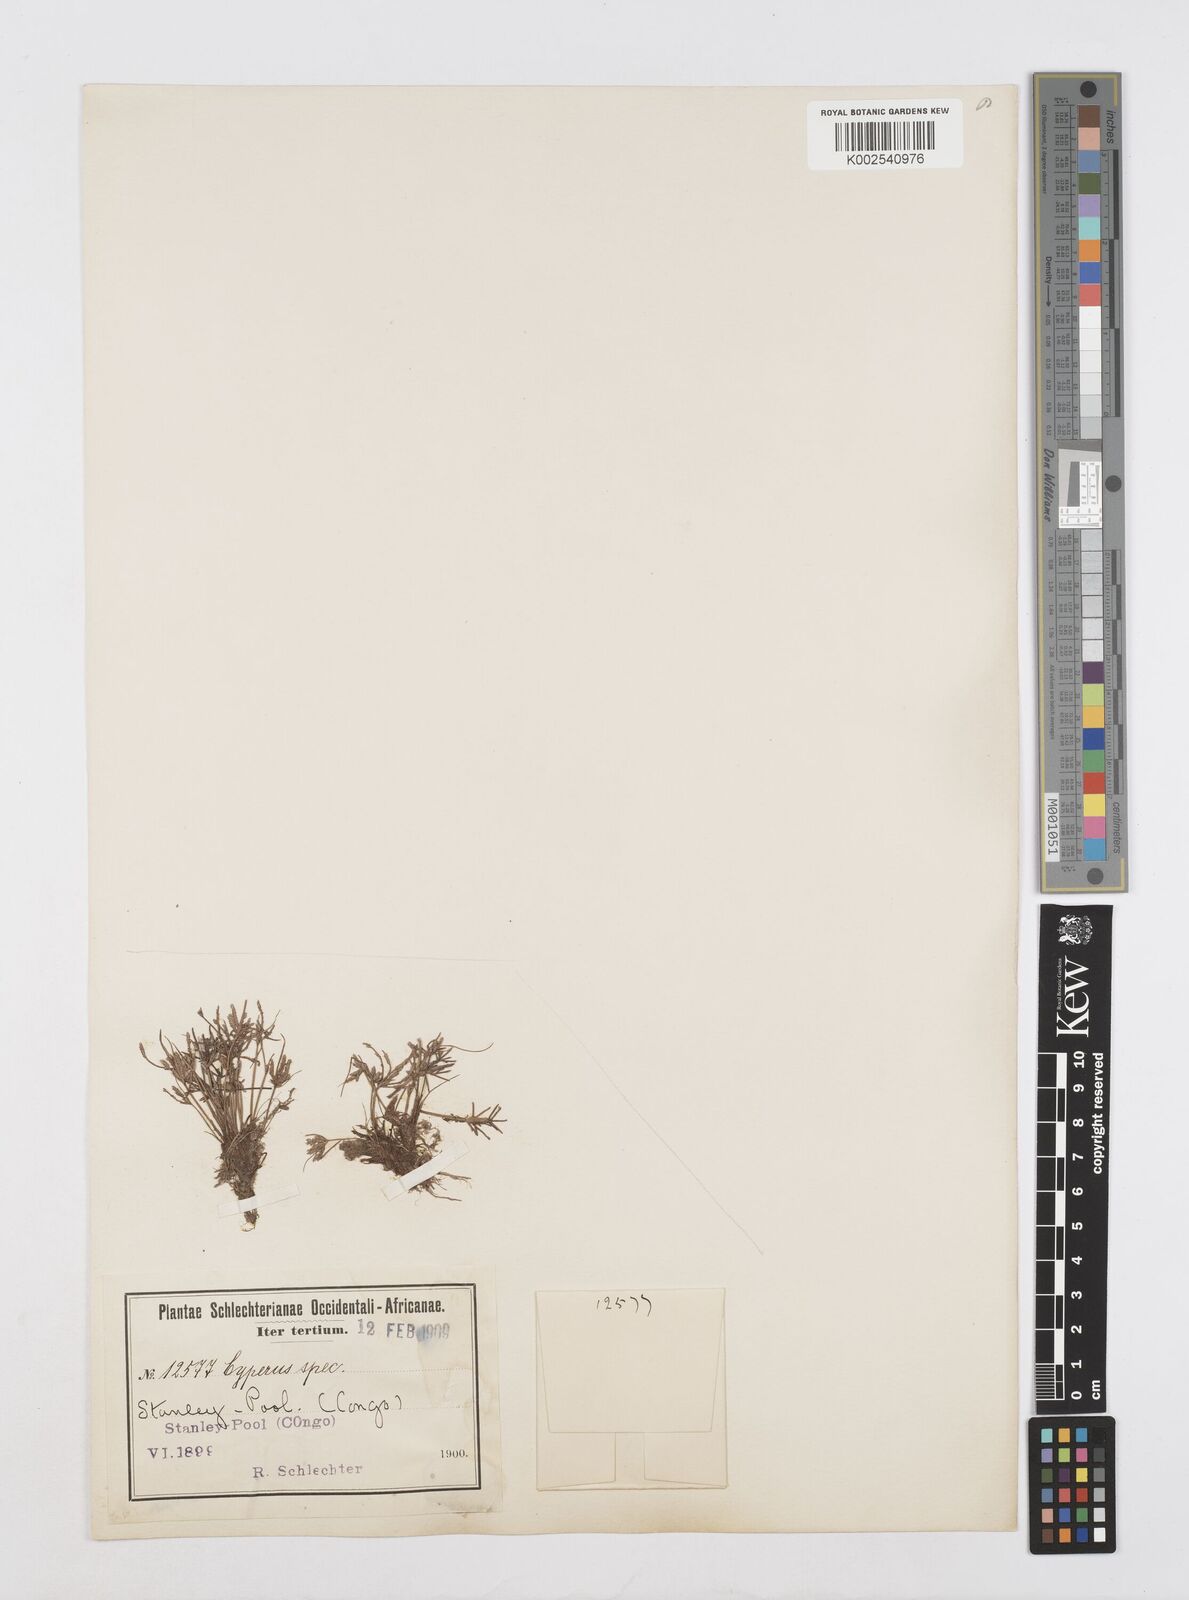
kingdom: Plantae
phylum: Tracheophyta
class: Liliopsida
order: Poales
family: Cyperaceae
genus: Cyperus
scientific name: Cyperus flavescens
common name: Yellow galingale
